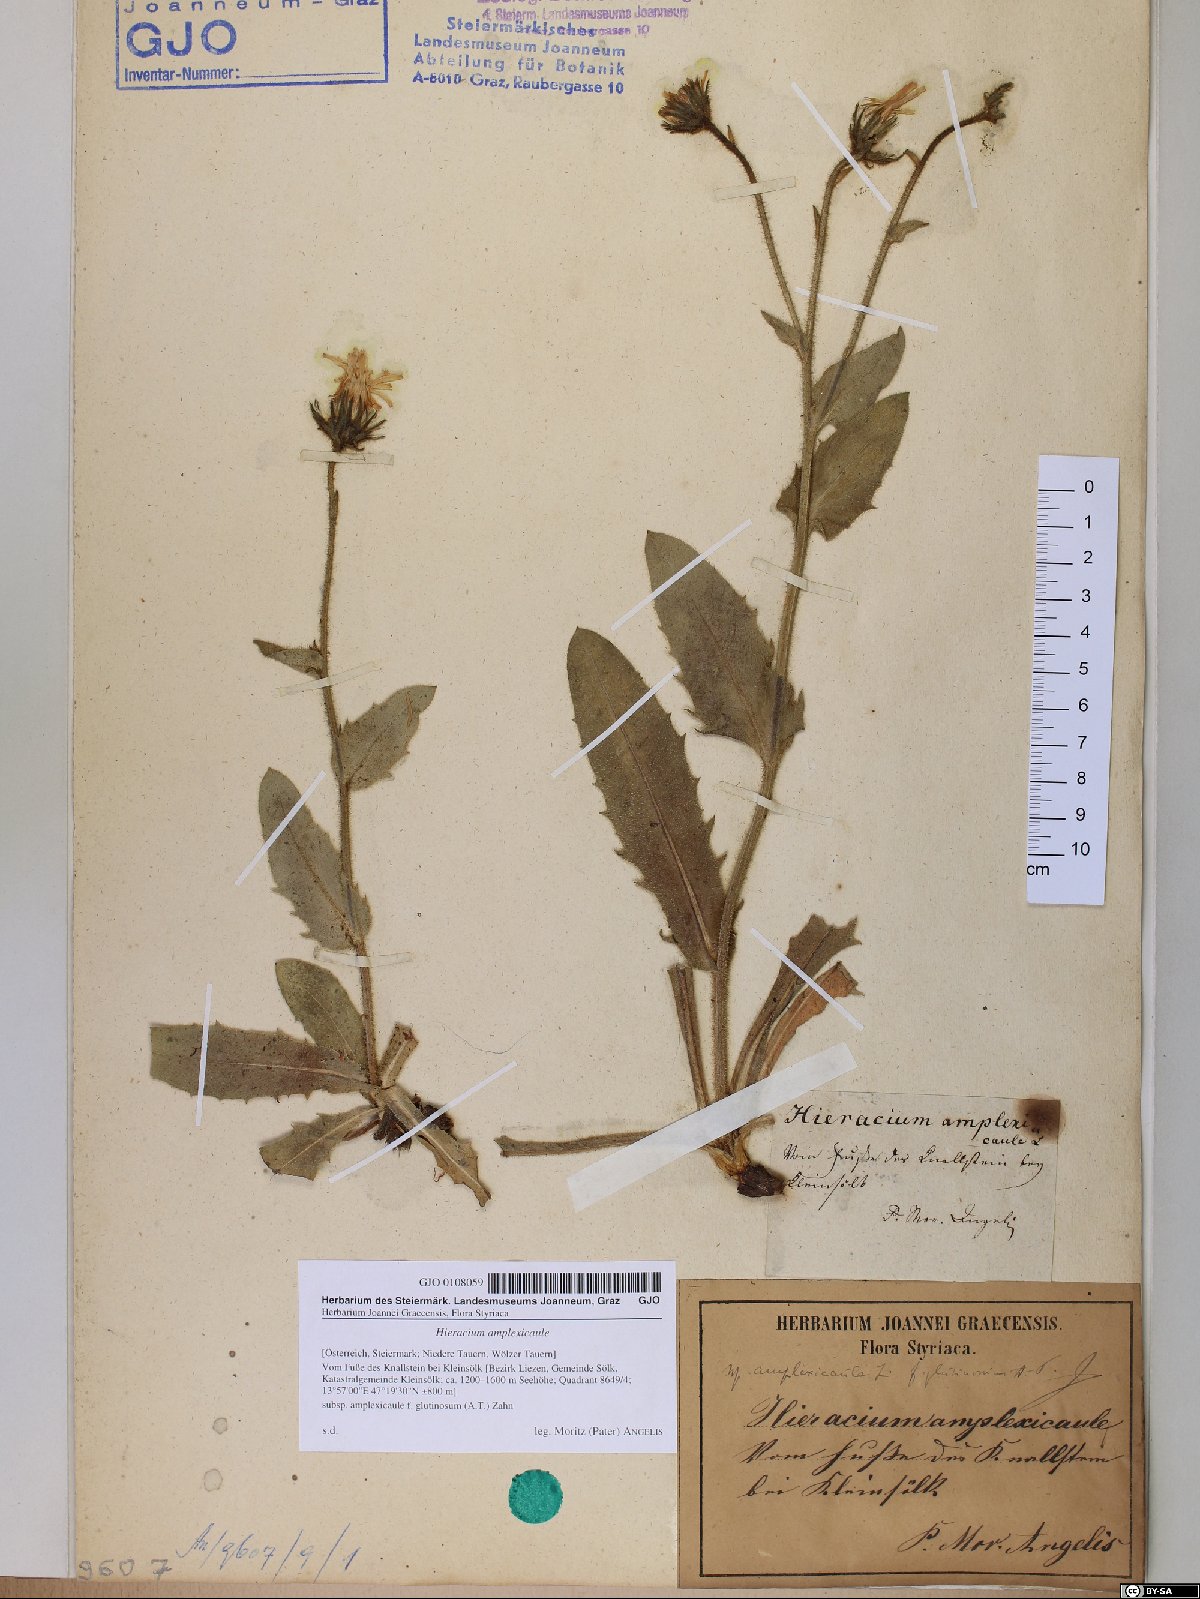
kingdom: Plantae
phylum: Tracheophyta
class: Magnoliopsida
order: Asterales
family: Asteraceae
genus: Hieracium
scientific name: Hieracium amplexicaule
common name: Sticky hawkweed
